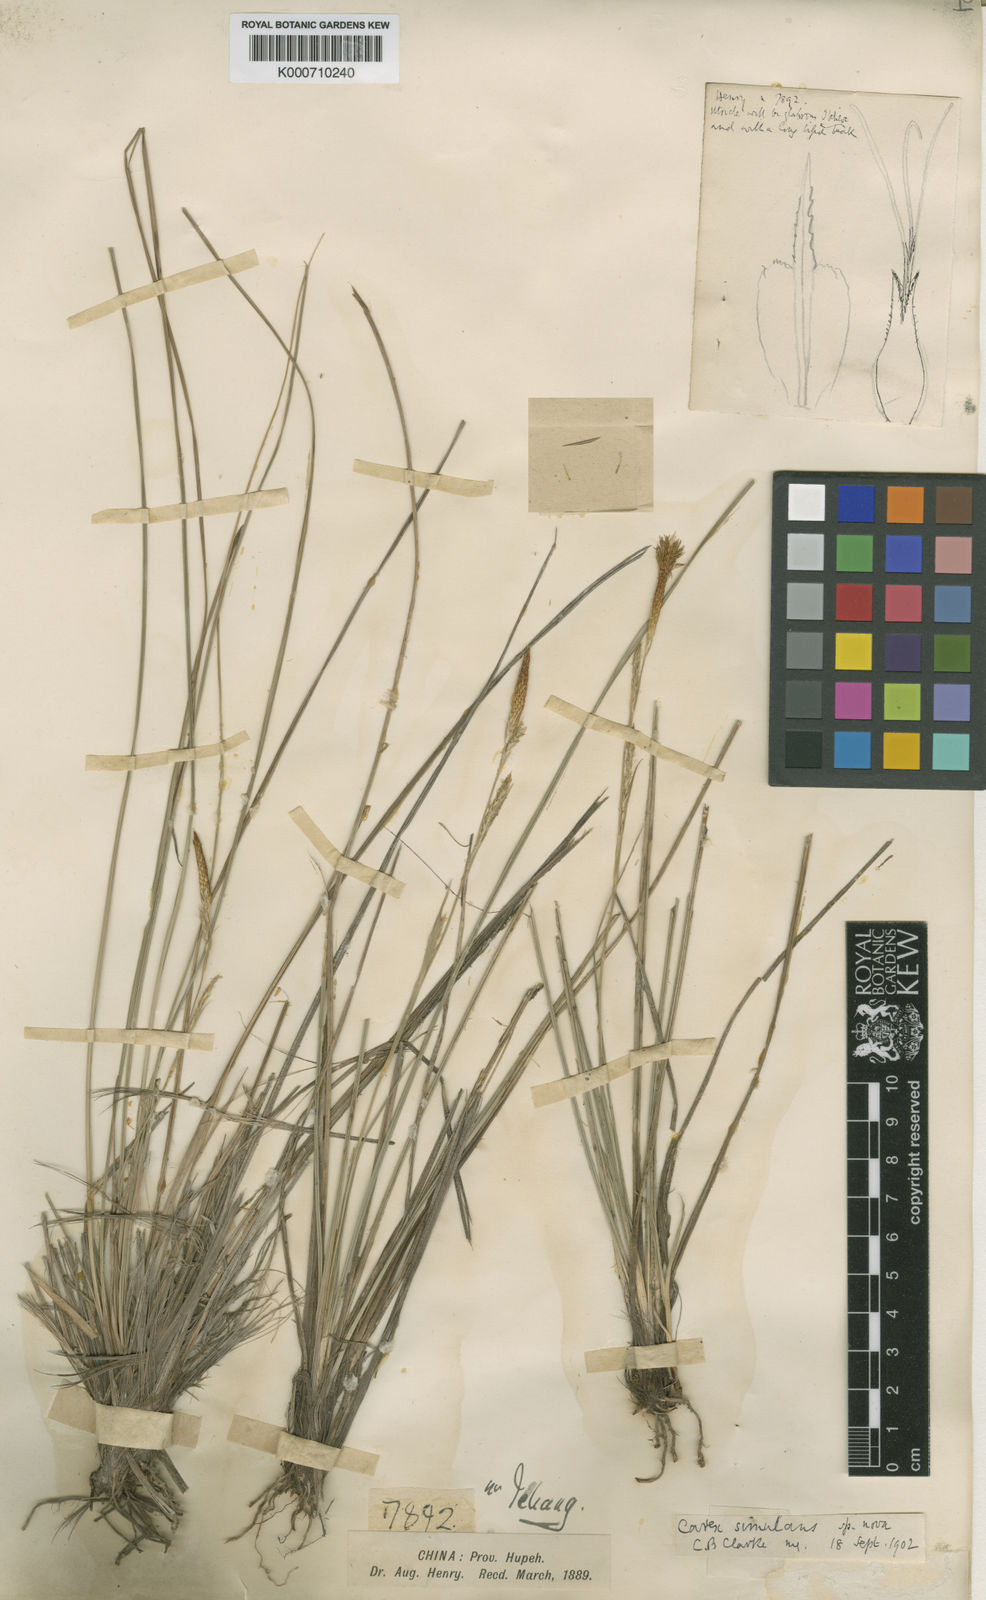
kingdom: Plantae
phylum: Tracheophyta
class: Liliopsida
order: Poales
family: Cyperaceae
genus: Carex
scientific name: Carex simulans
